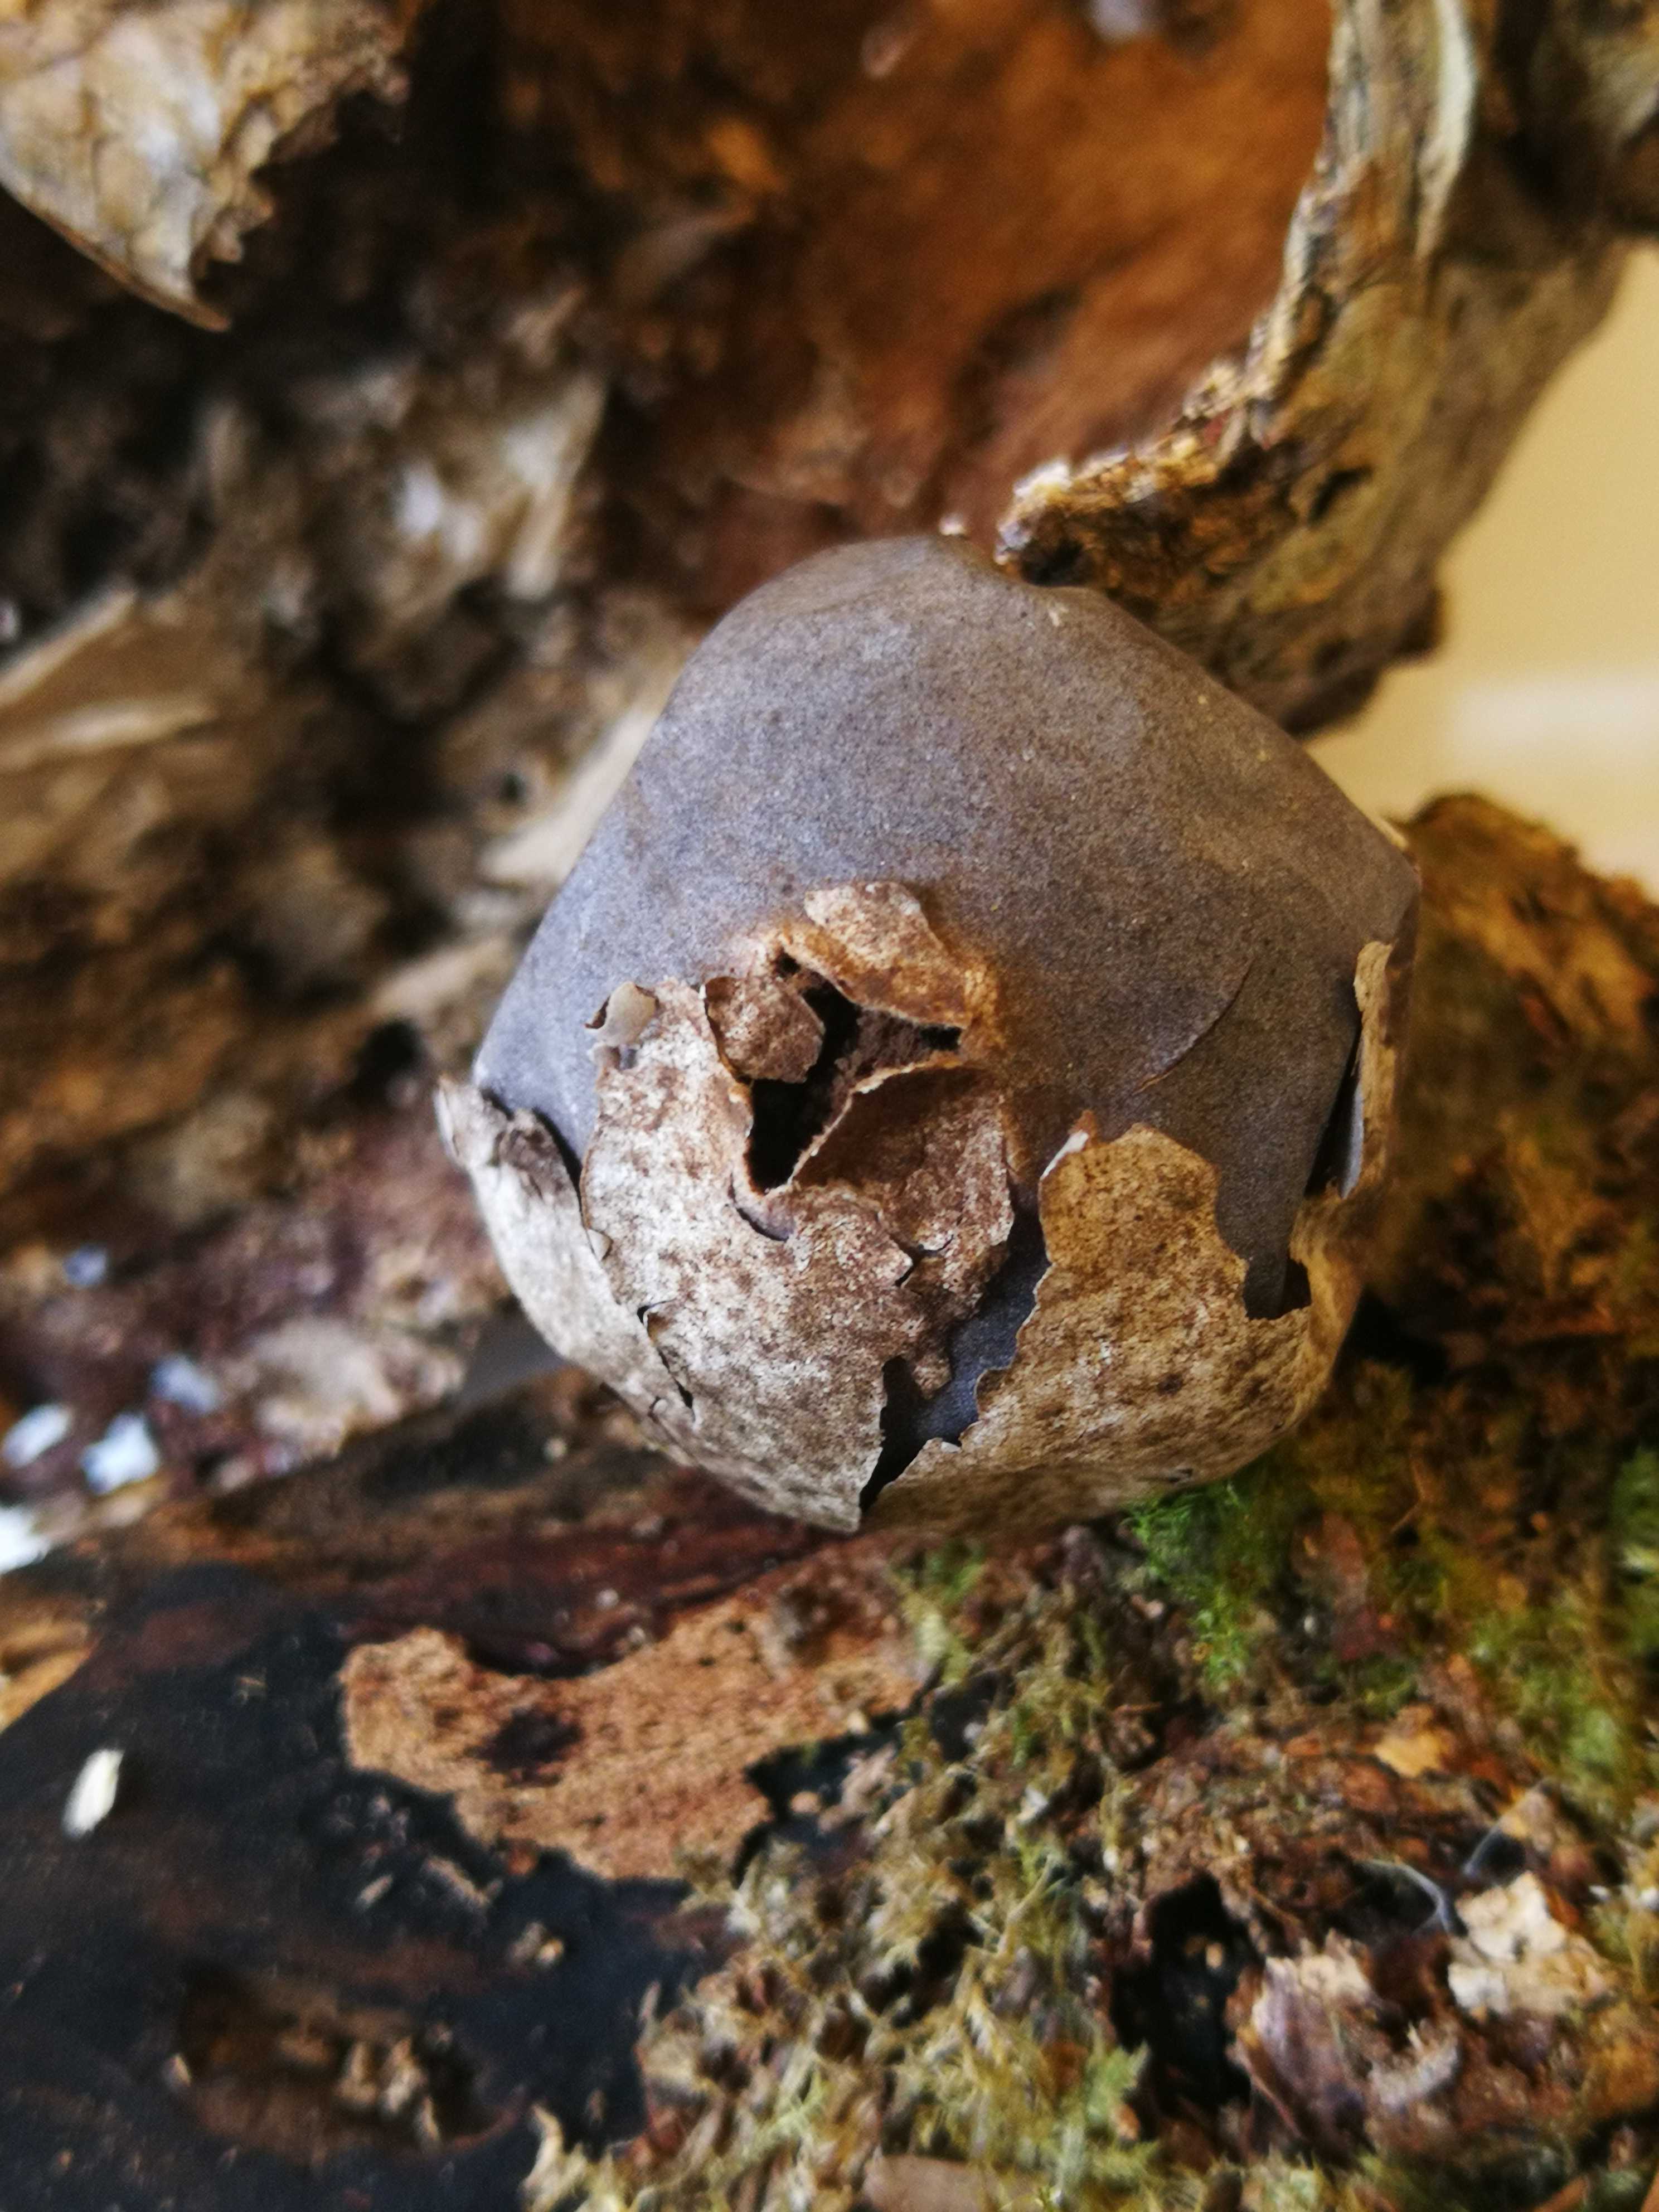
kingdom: Fungi
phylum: Basidiomycota
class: Agaricomycetes
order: Agaricales
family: Lycoperdaceae
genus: Bovista
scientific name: Bovista plumbea
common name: blygrå bovist
